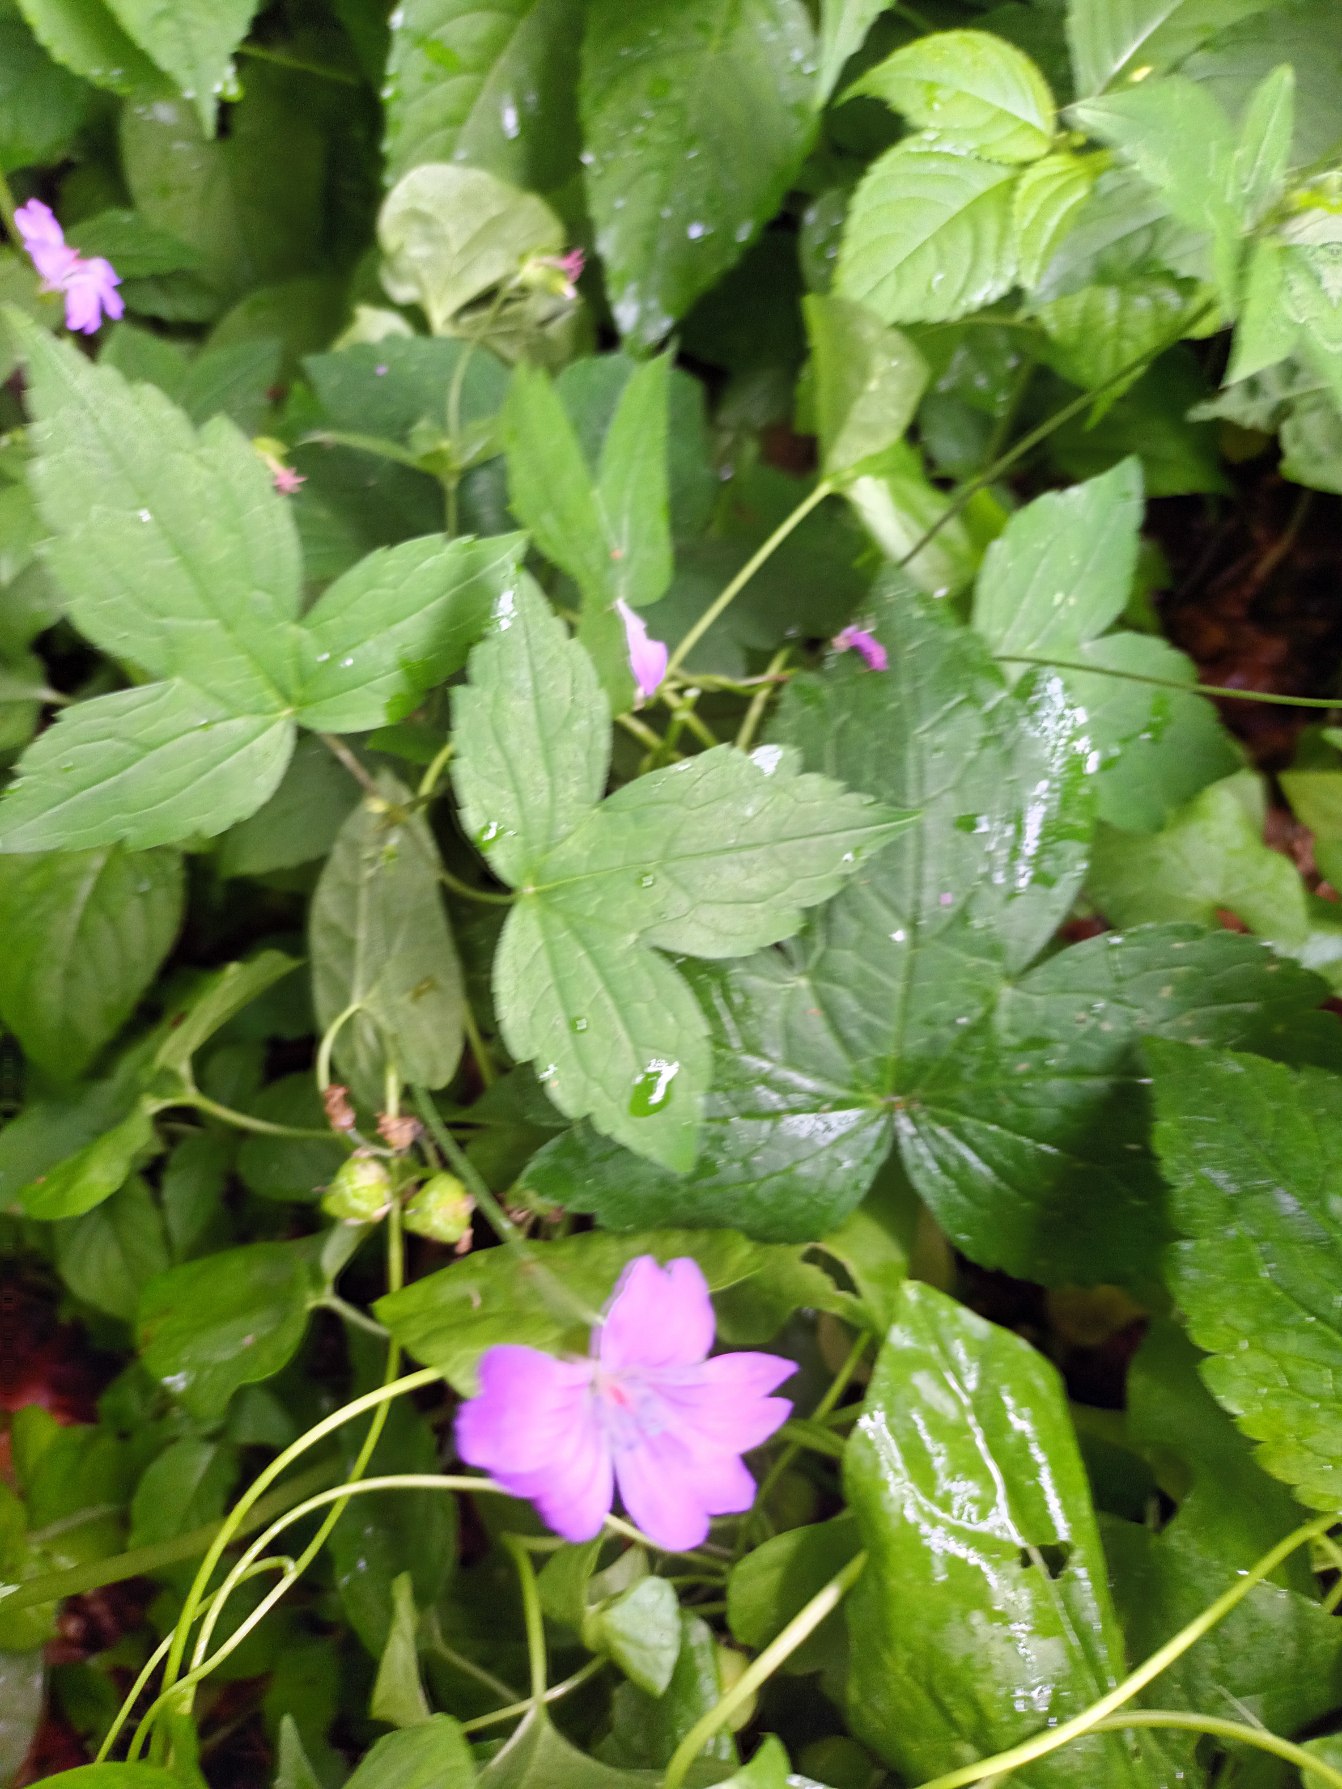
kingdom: Plantae
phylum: Tracheophyta
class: Magnoliopsida
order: Geraniales
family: Geraniaceae
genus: Geranium
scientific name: Geranium nodosum
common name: Knudret storkenæb
